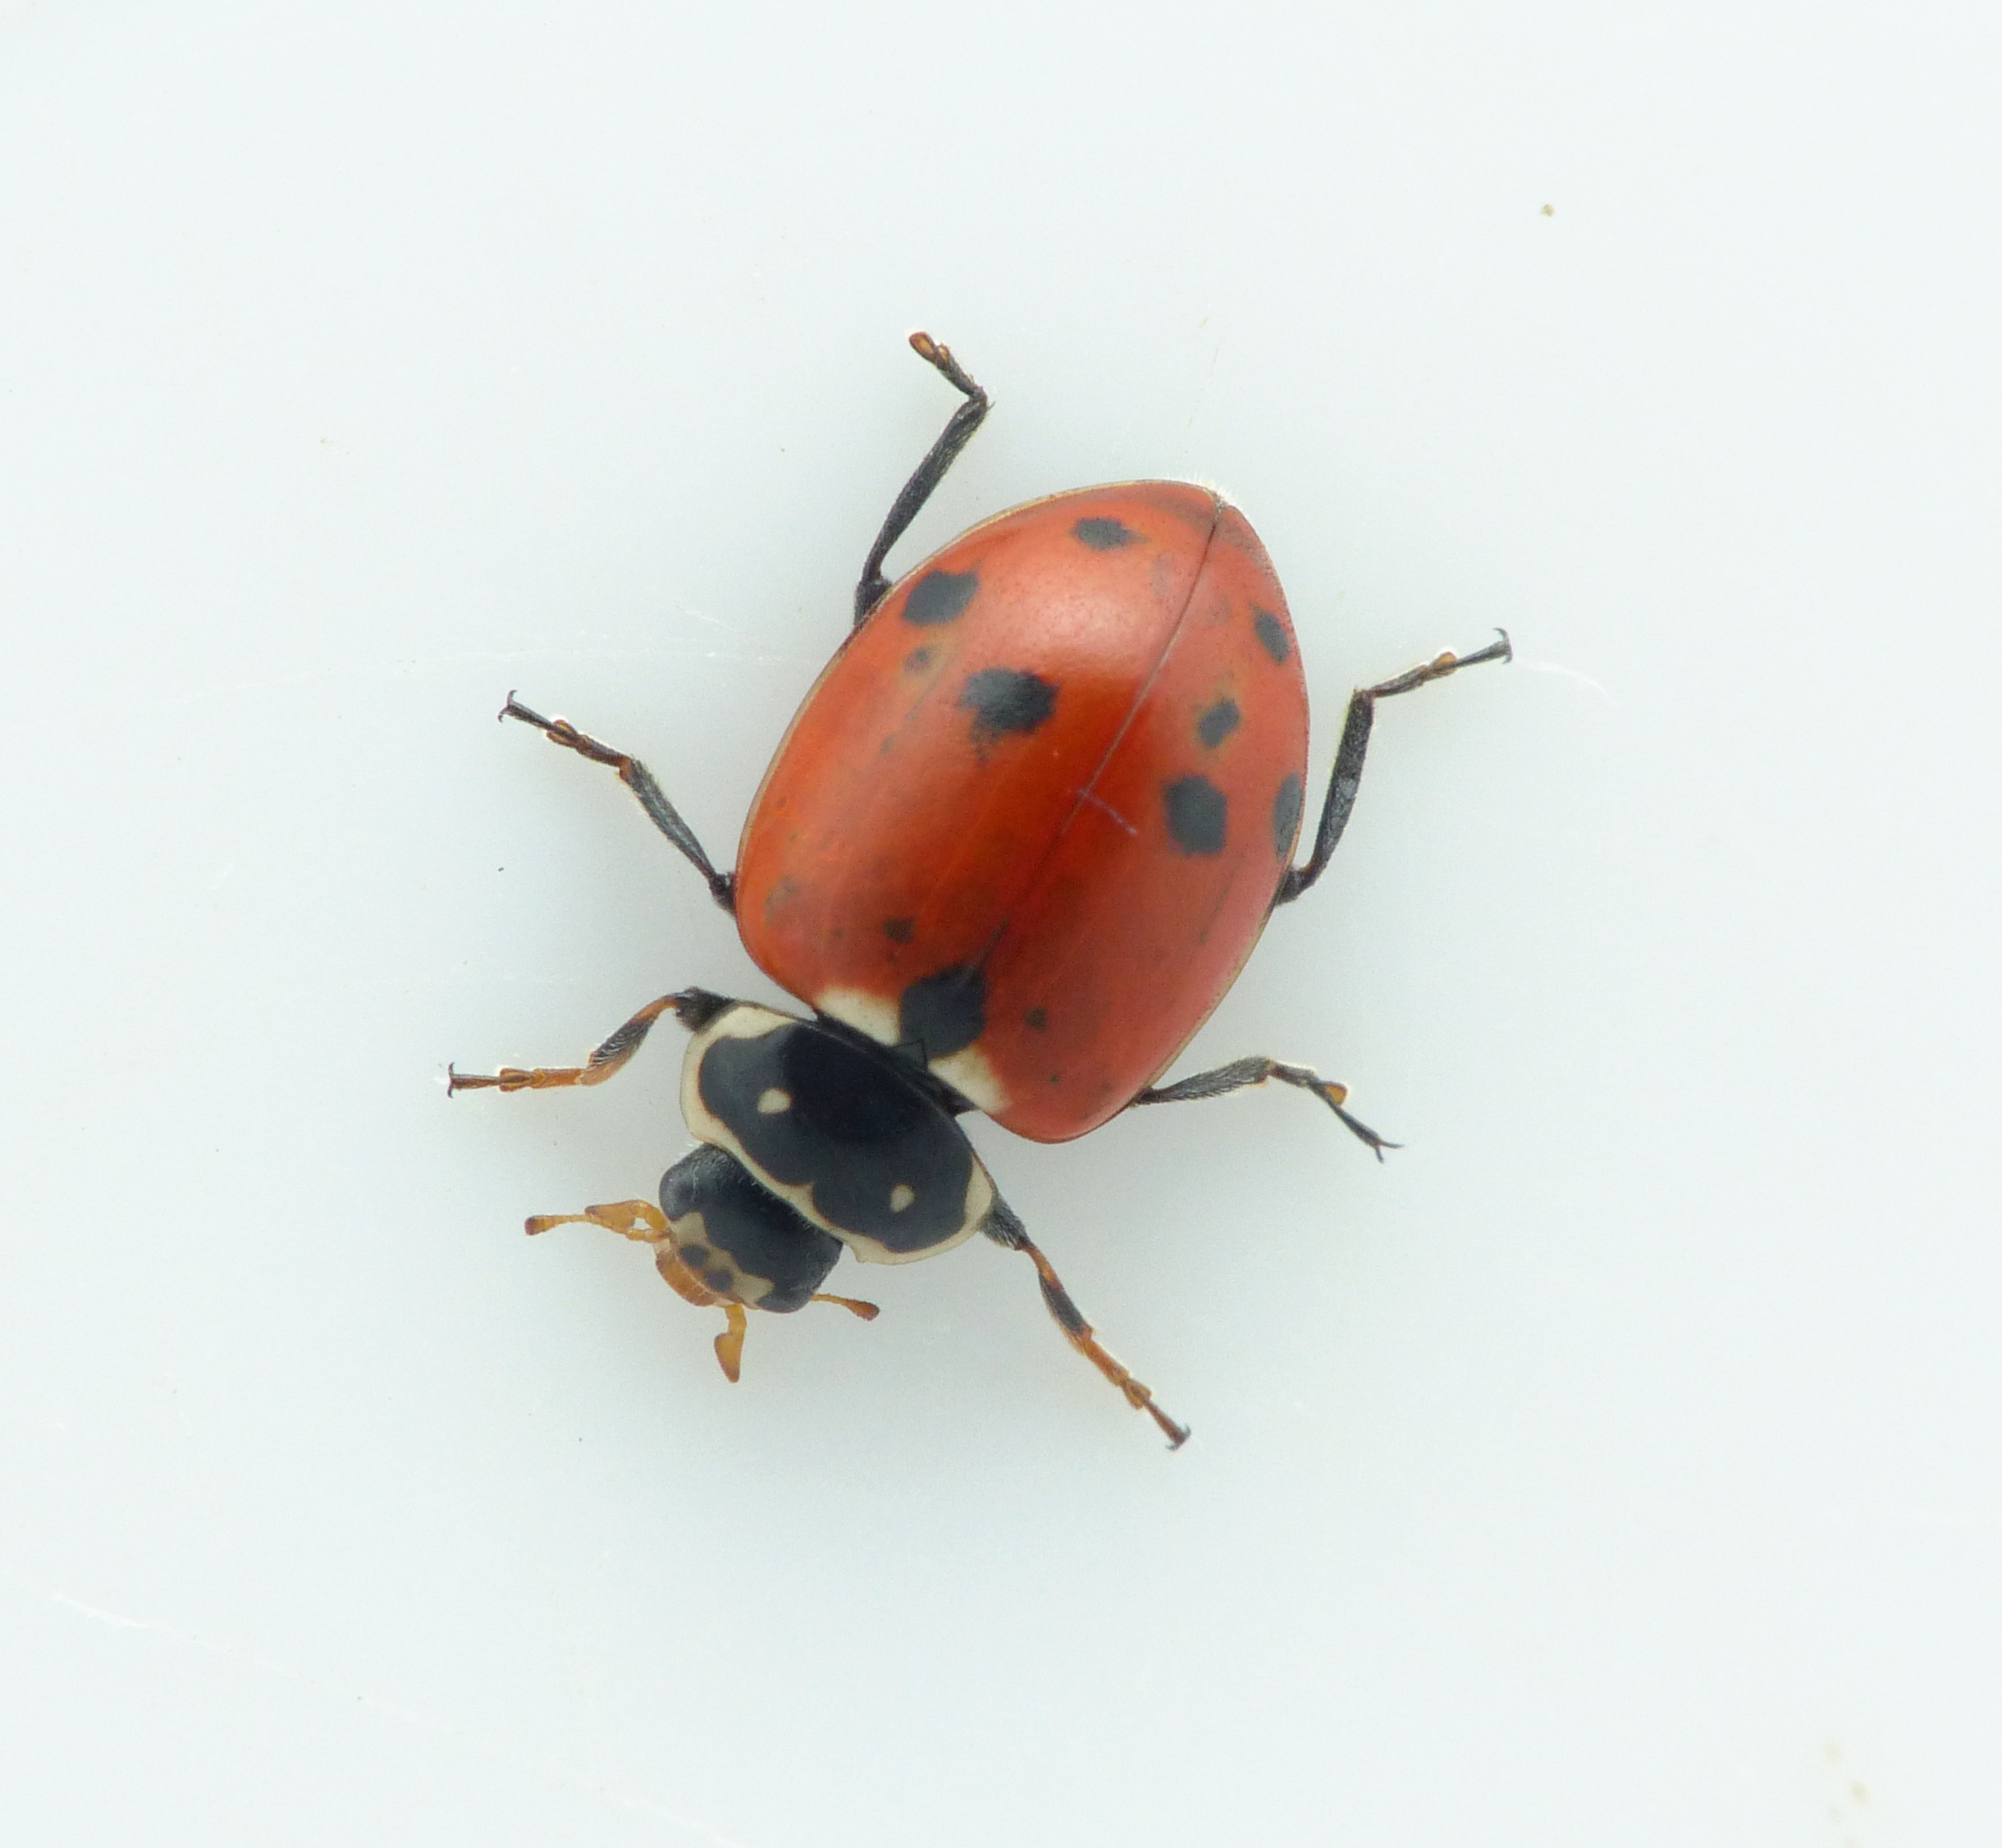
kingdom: Animalia
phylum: Arthropoda
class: Insecta
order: Coleoptera
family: Coccinellidae
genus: Hippodamia
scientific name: Hippodamia variegata
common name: Adonis' mariehøne
